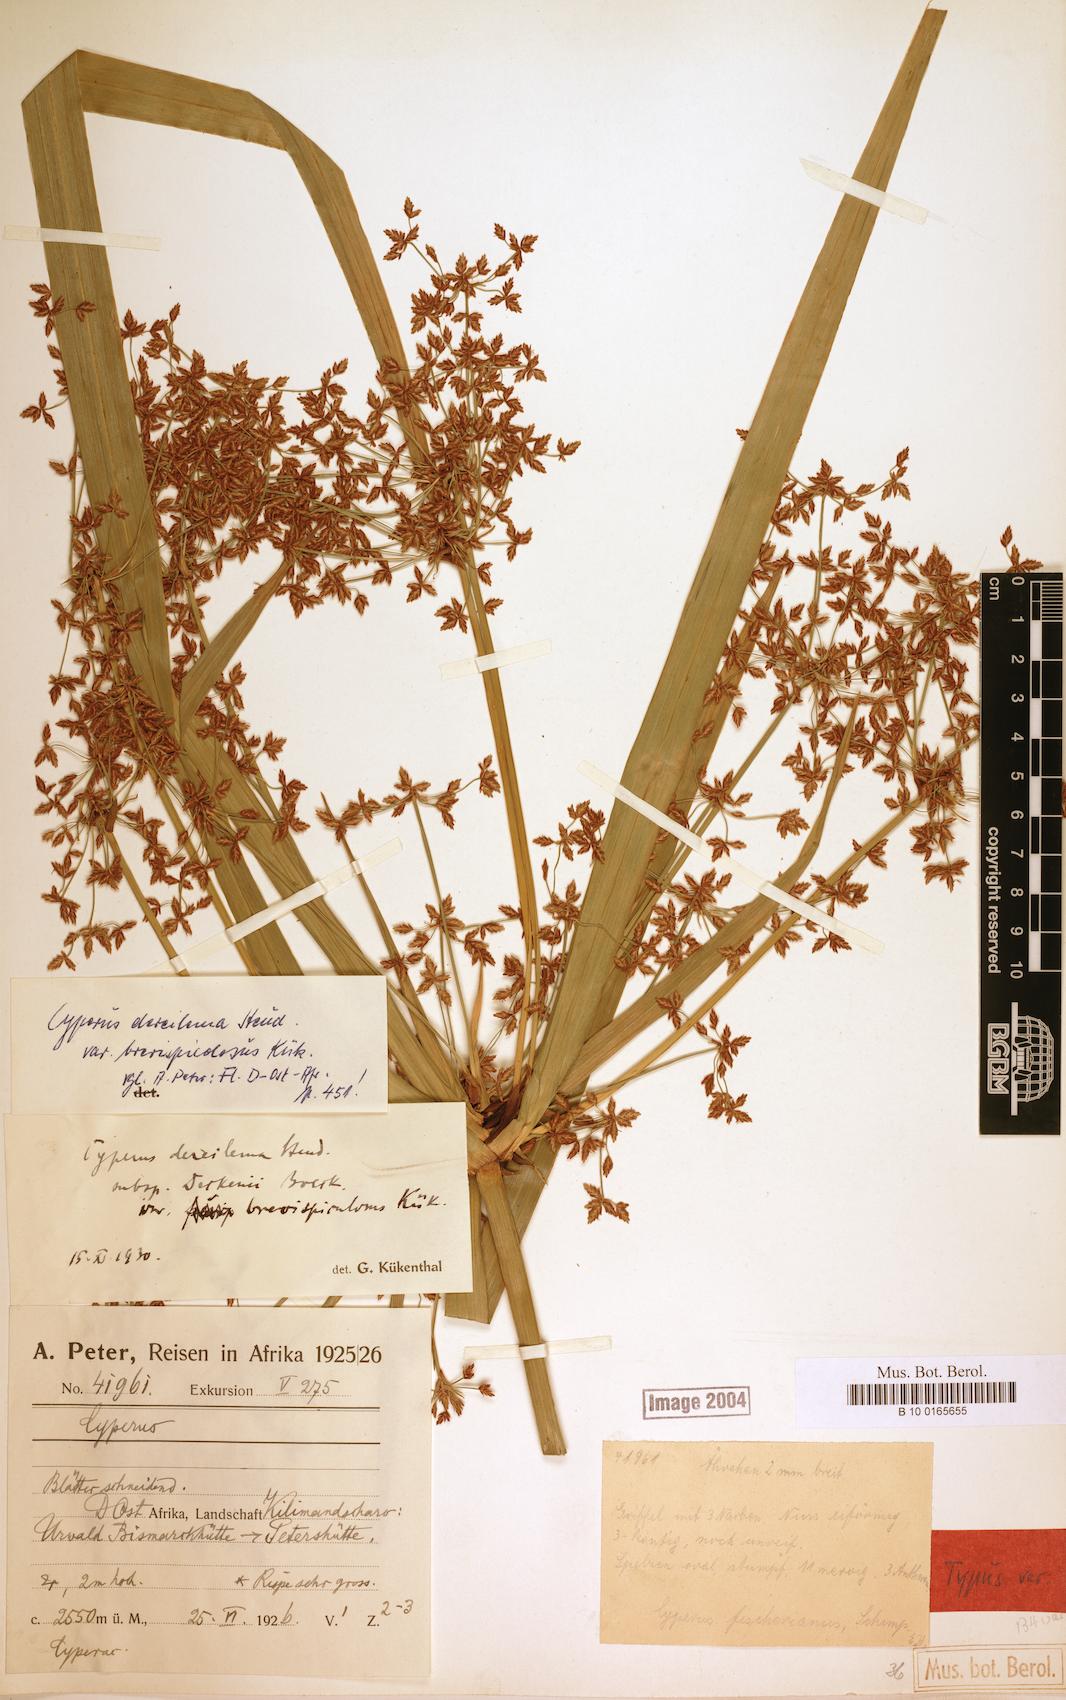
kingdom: Plantae
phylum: Tracheophyta
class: Liliopsida
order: Poales
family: Cyperaceae
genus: Cyperus
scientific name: Cyperus derreilema
